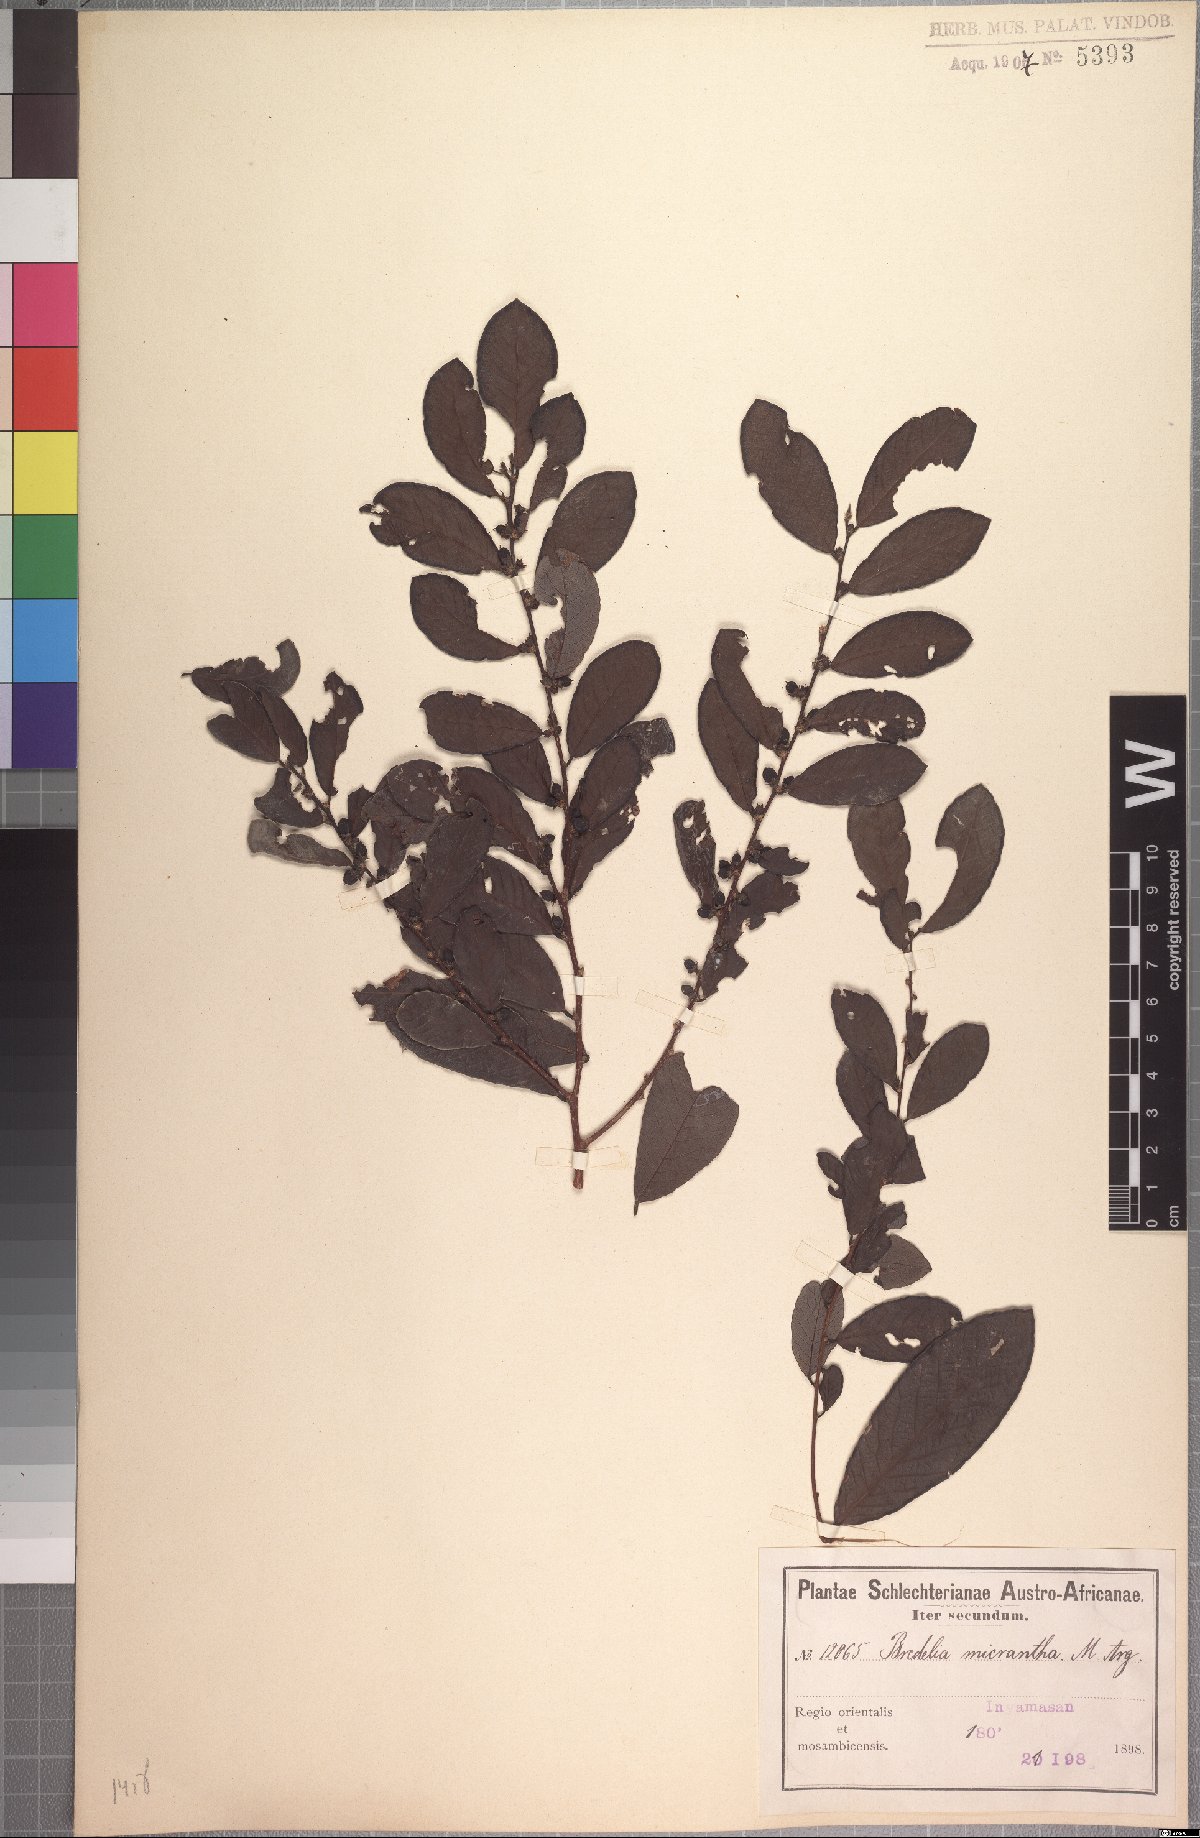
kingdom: Plantae
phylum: Tracheophyta
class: Magnoliopsida
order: Malpighiales
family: Phyllanthaceae
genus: Bridelia
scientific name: Bridelia cathartica
